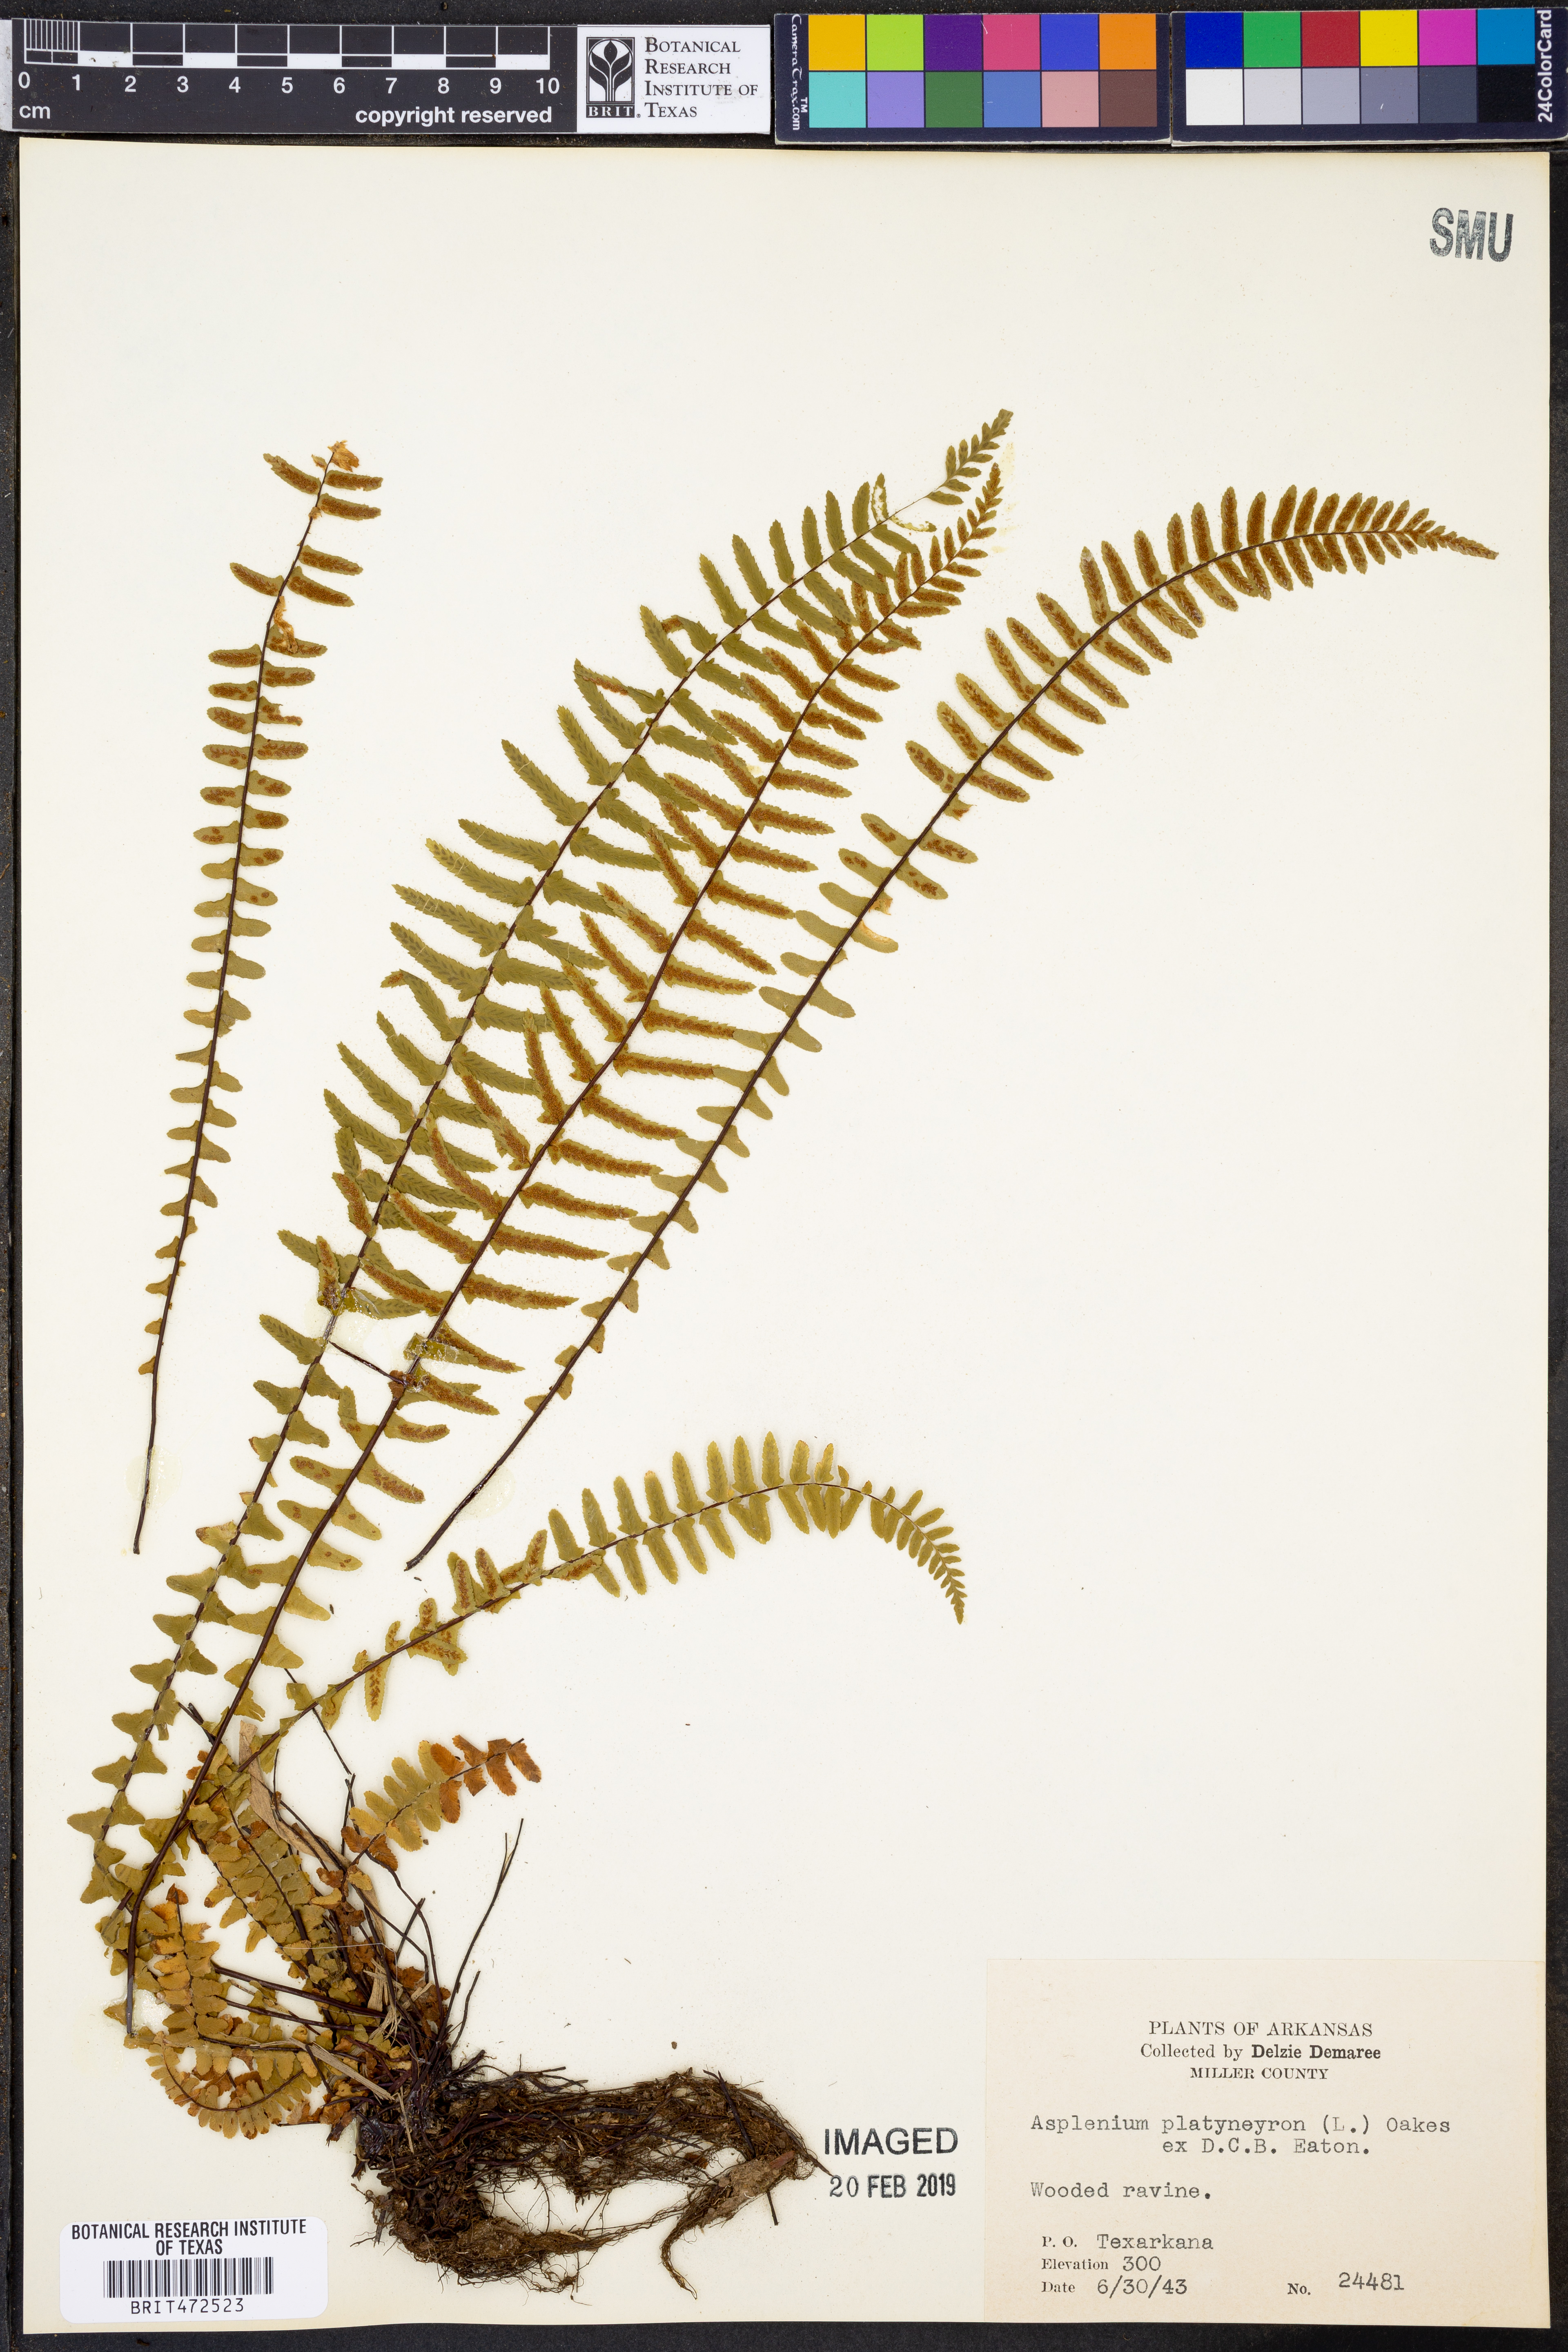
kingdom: Plantae
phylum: Tracheophyta
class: Polypodiopsida
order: Polypodiales
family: Aspleniaceae
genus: Asplenium
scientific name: Asplenium platyneuron
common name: Ebony spleenwort
